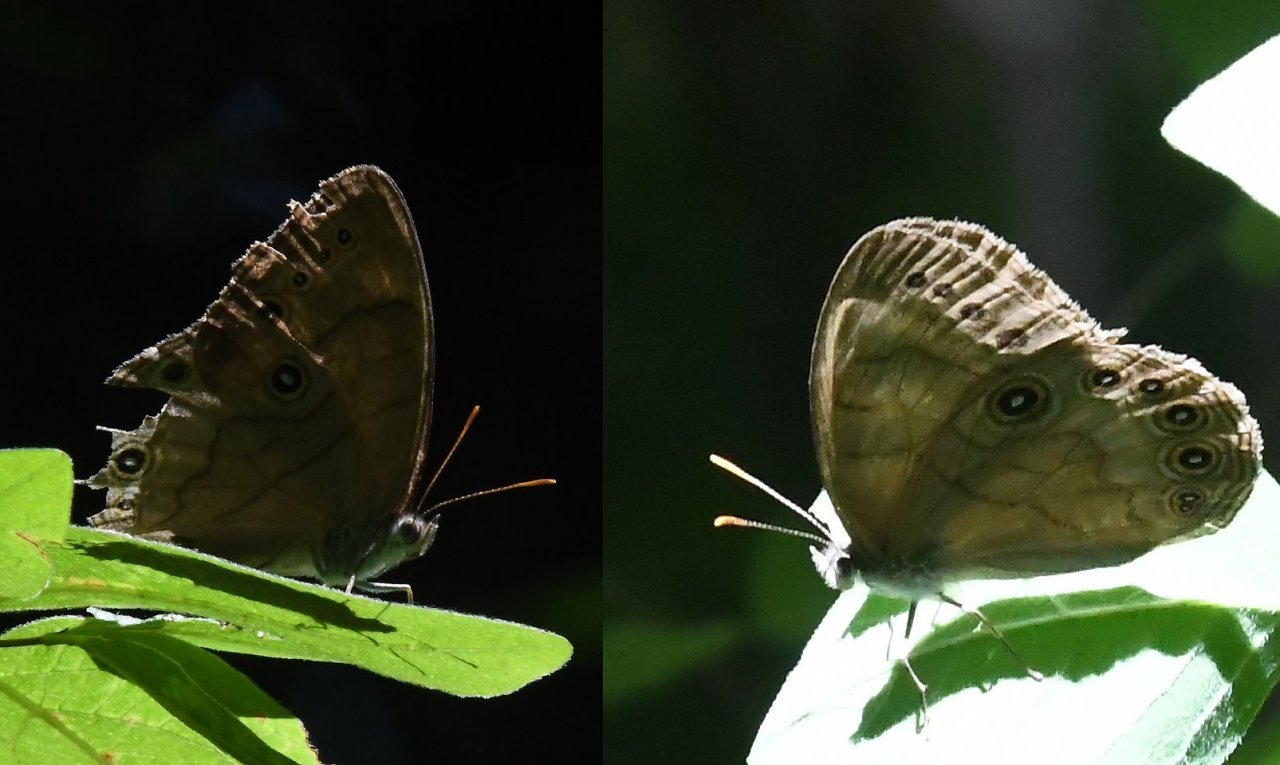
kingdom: Animalia
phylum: Arthropoda
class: Insecta
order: Lepidoptera
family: Nymphalidae
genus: Lethe
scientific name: Lethe eurydice
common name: Appalachian Eyed Brown
